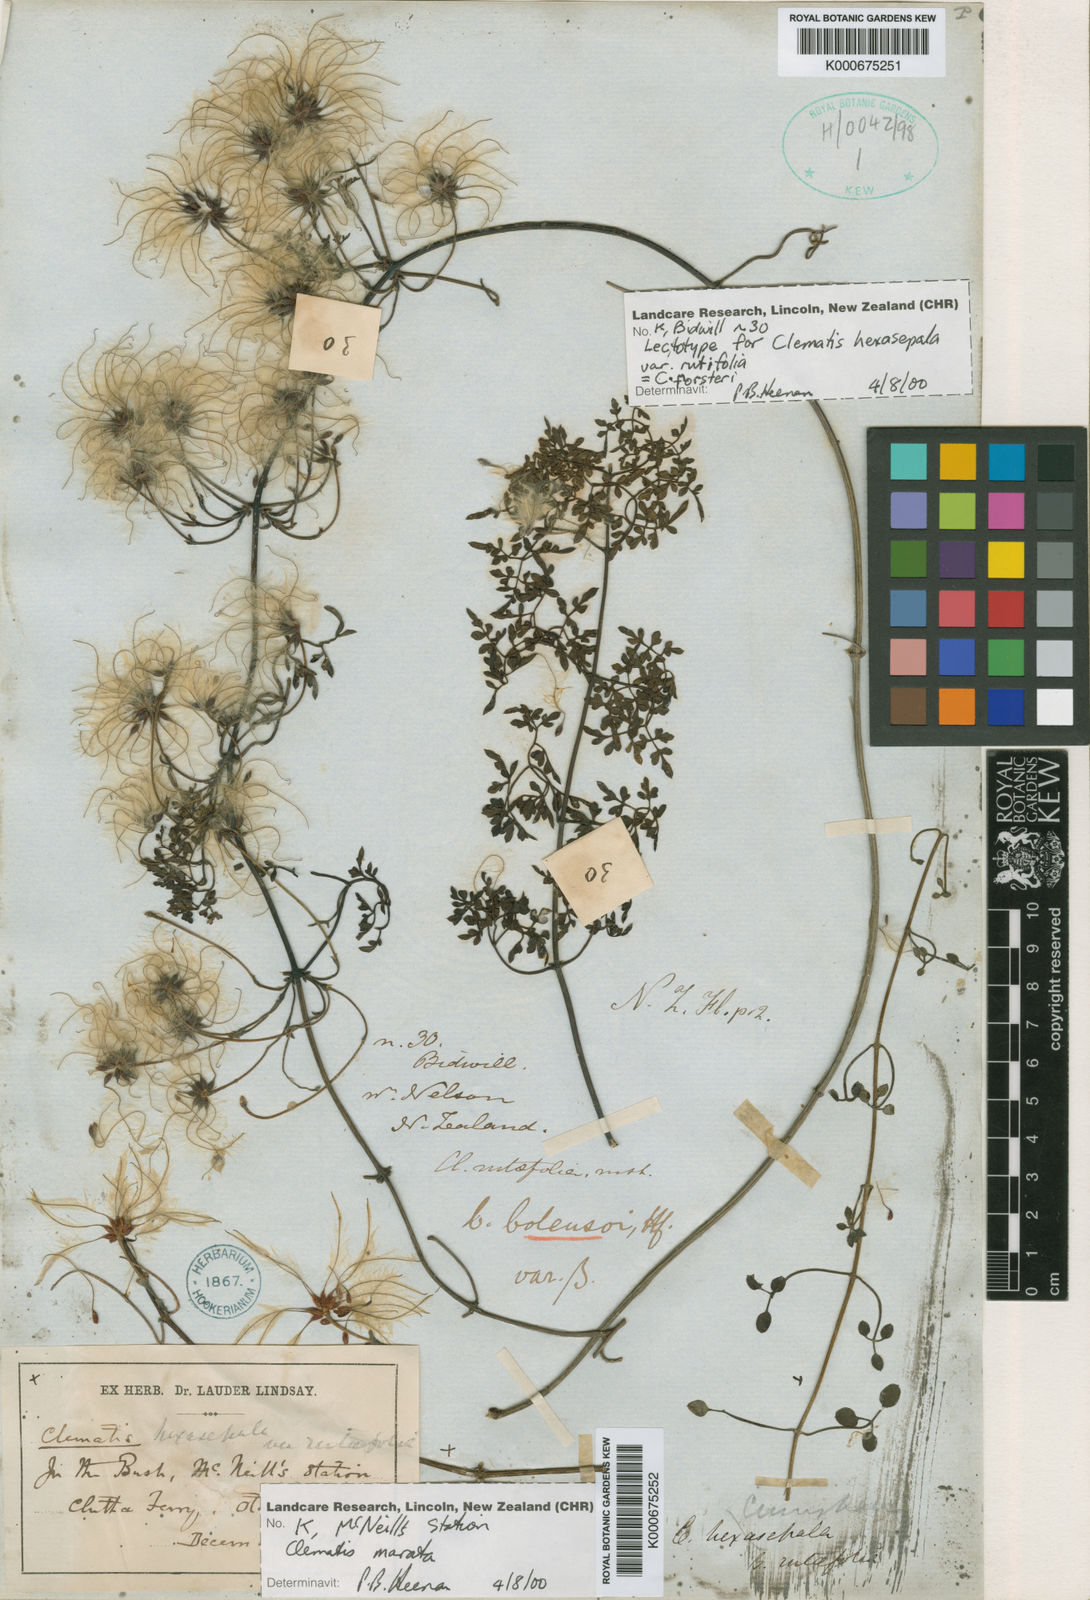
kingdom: Plantae
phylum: Tracheophyta
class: Magnoliopsida
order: Ranunculales
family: Ranunculaceae
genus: Clematis
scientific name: Clematis forsteri
